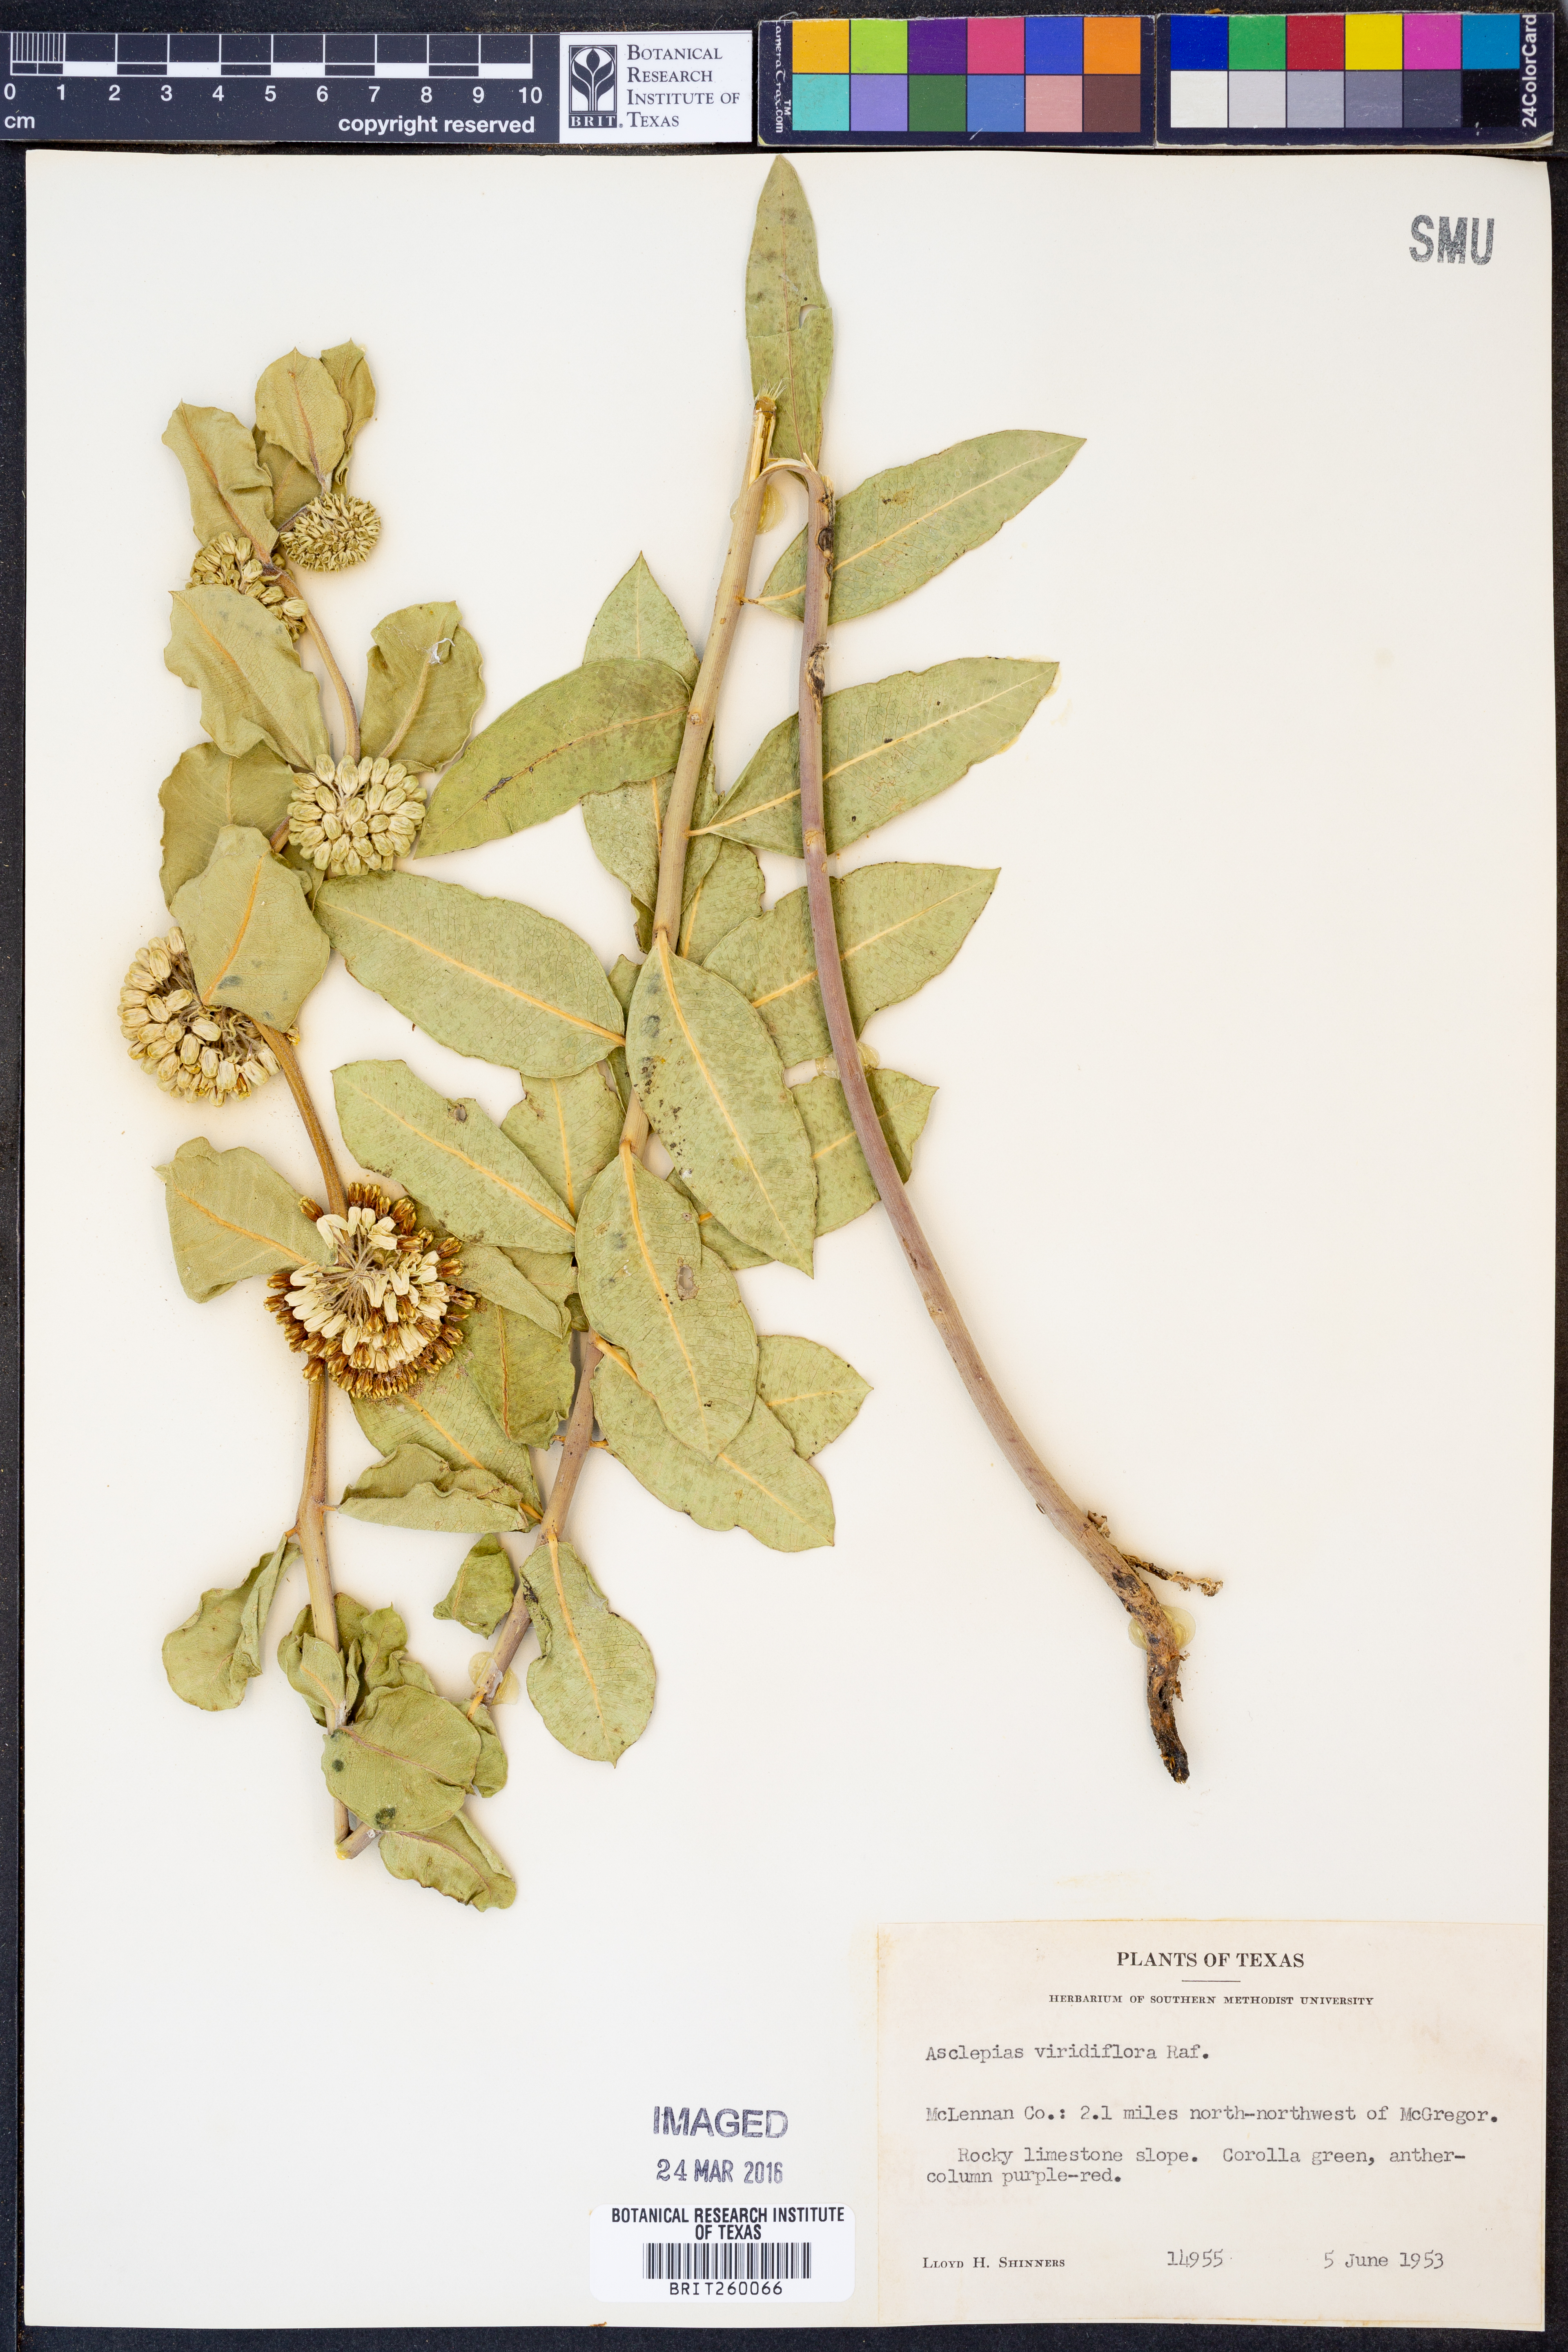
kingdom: Plantae
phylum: Tracheophyta
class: Magnoliopsida
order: Gentianales
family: Apocynaceae
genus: Asclepias
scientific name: Asclepias viridiflora
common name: Green comet milkweed
